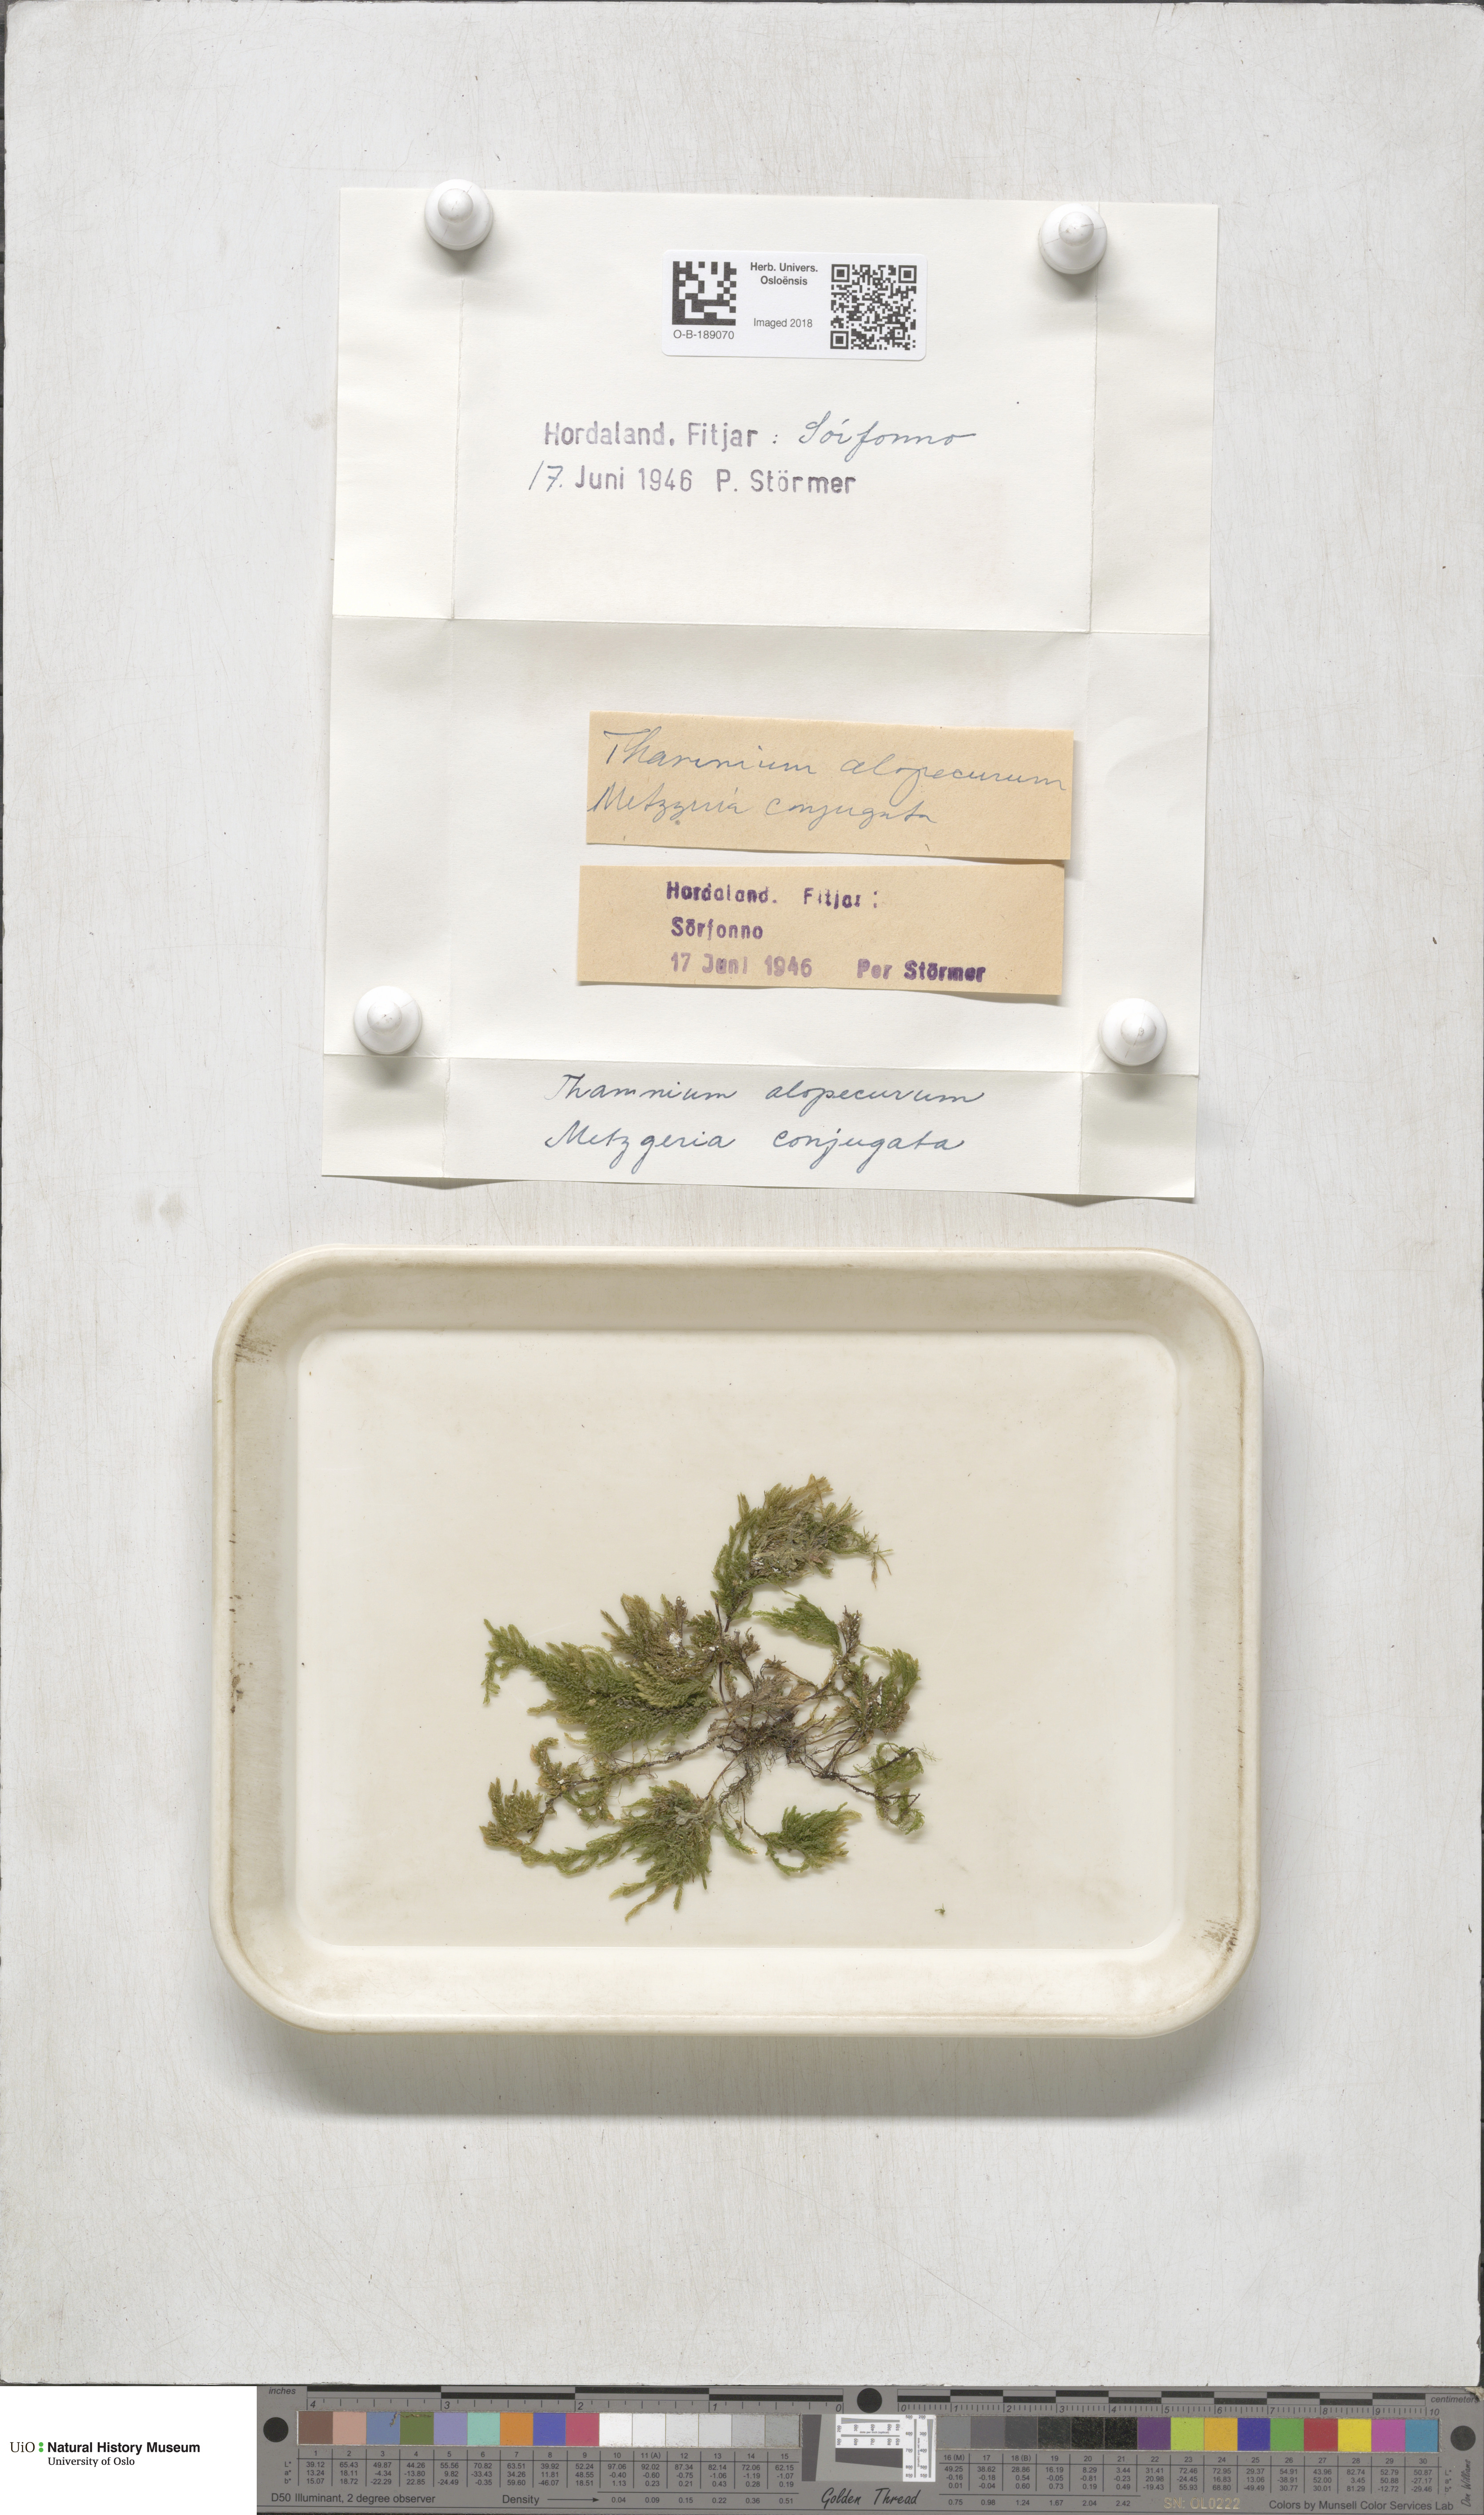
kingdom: Plantae
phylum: Bryophyta
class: Bryopsida
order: Hypnales
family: Neckeraceae
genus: Thamnobryum
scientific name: Thamnobryum alopecurum
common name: Fox-tail feather-moss
